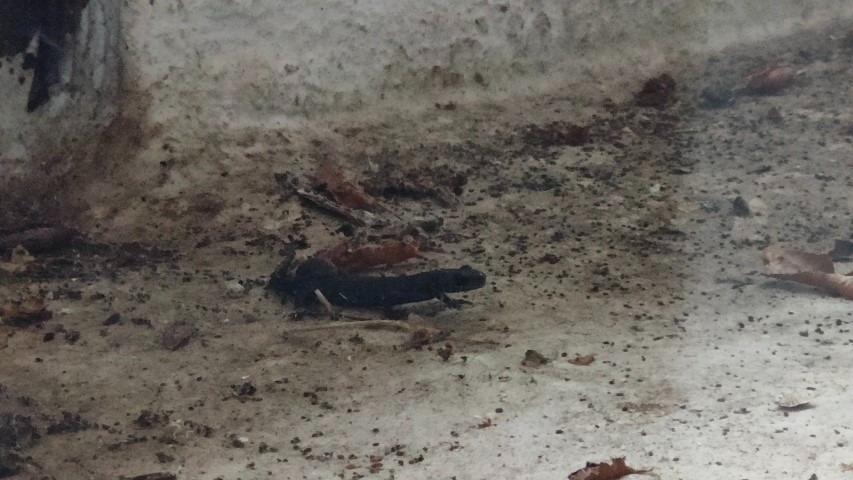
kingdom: Animalia
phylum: Chordata
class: Amphibia
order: Caudata
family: Salamandridae
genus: Triturus
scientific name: Triturus cristatus
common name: Stor vandsalamander
